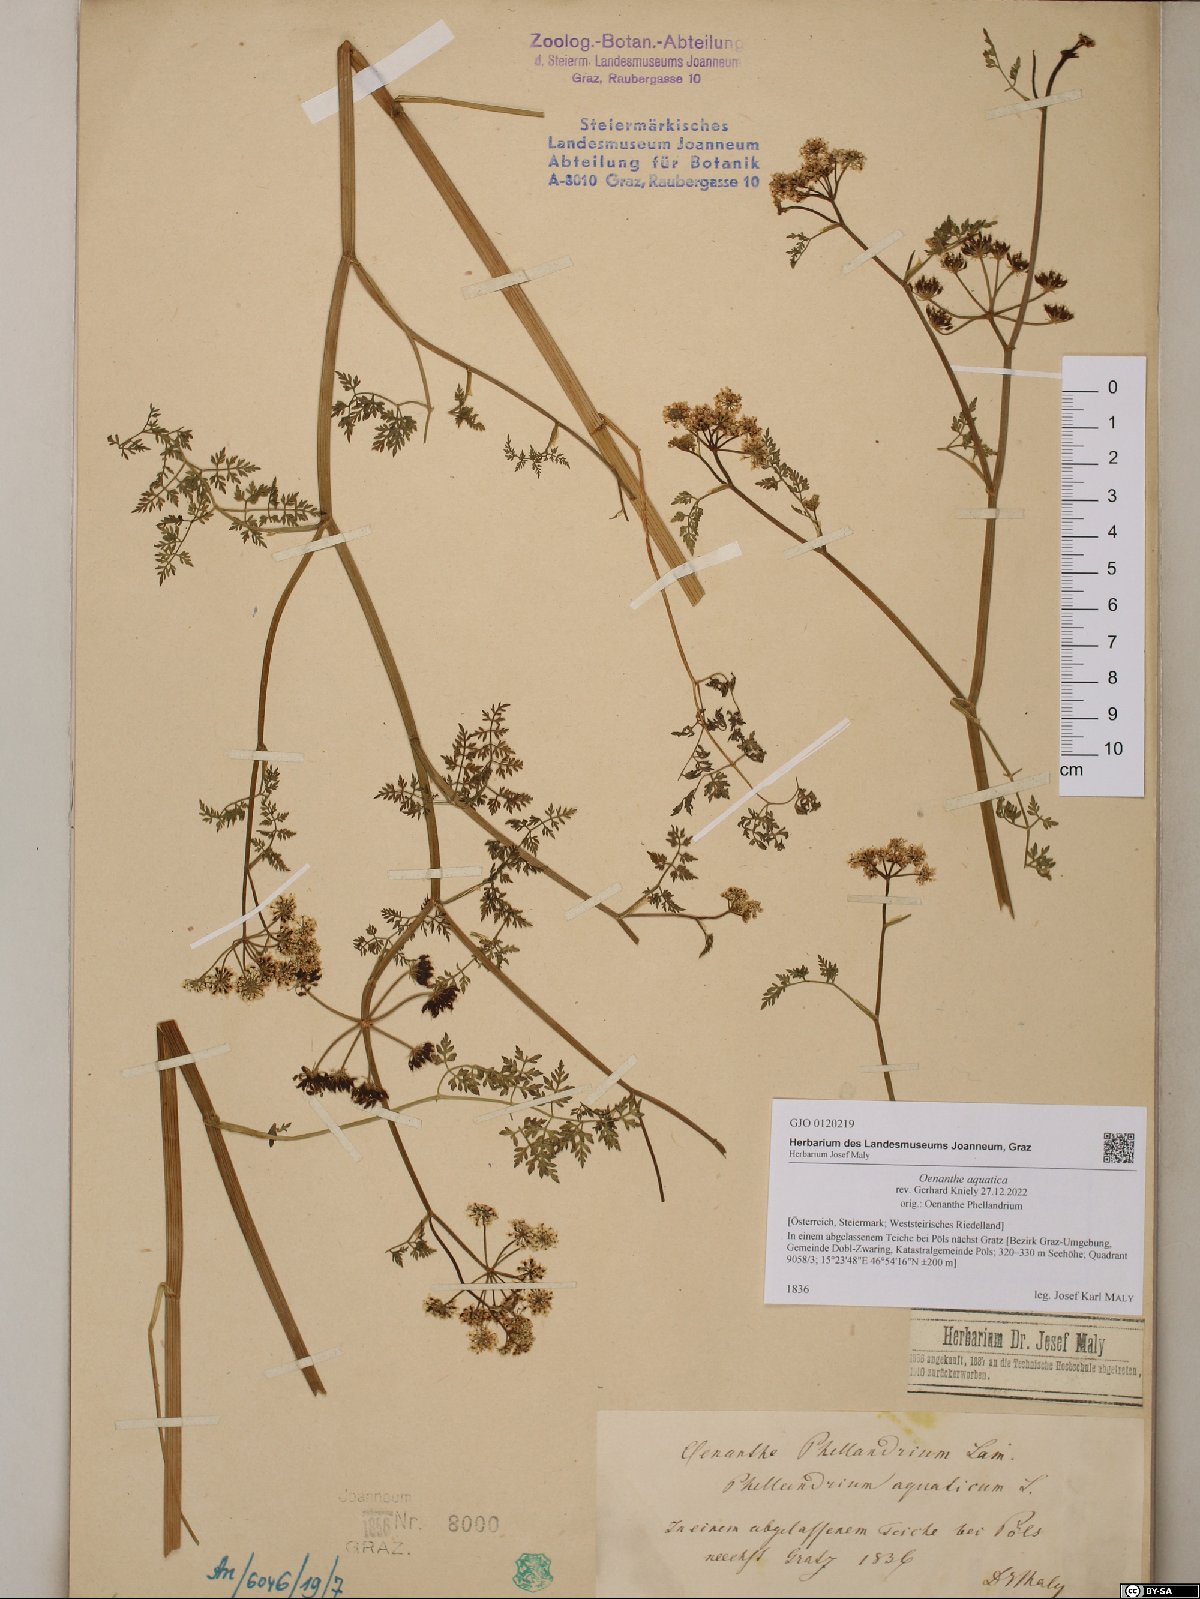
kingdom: Plantae
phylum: Tracheophyta
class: Magnoliopsida
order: Apiales
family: Apiaceae
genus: Oenanthe
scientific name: Oenanthe aquatica
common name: Fine-leaved water-dropwort
